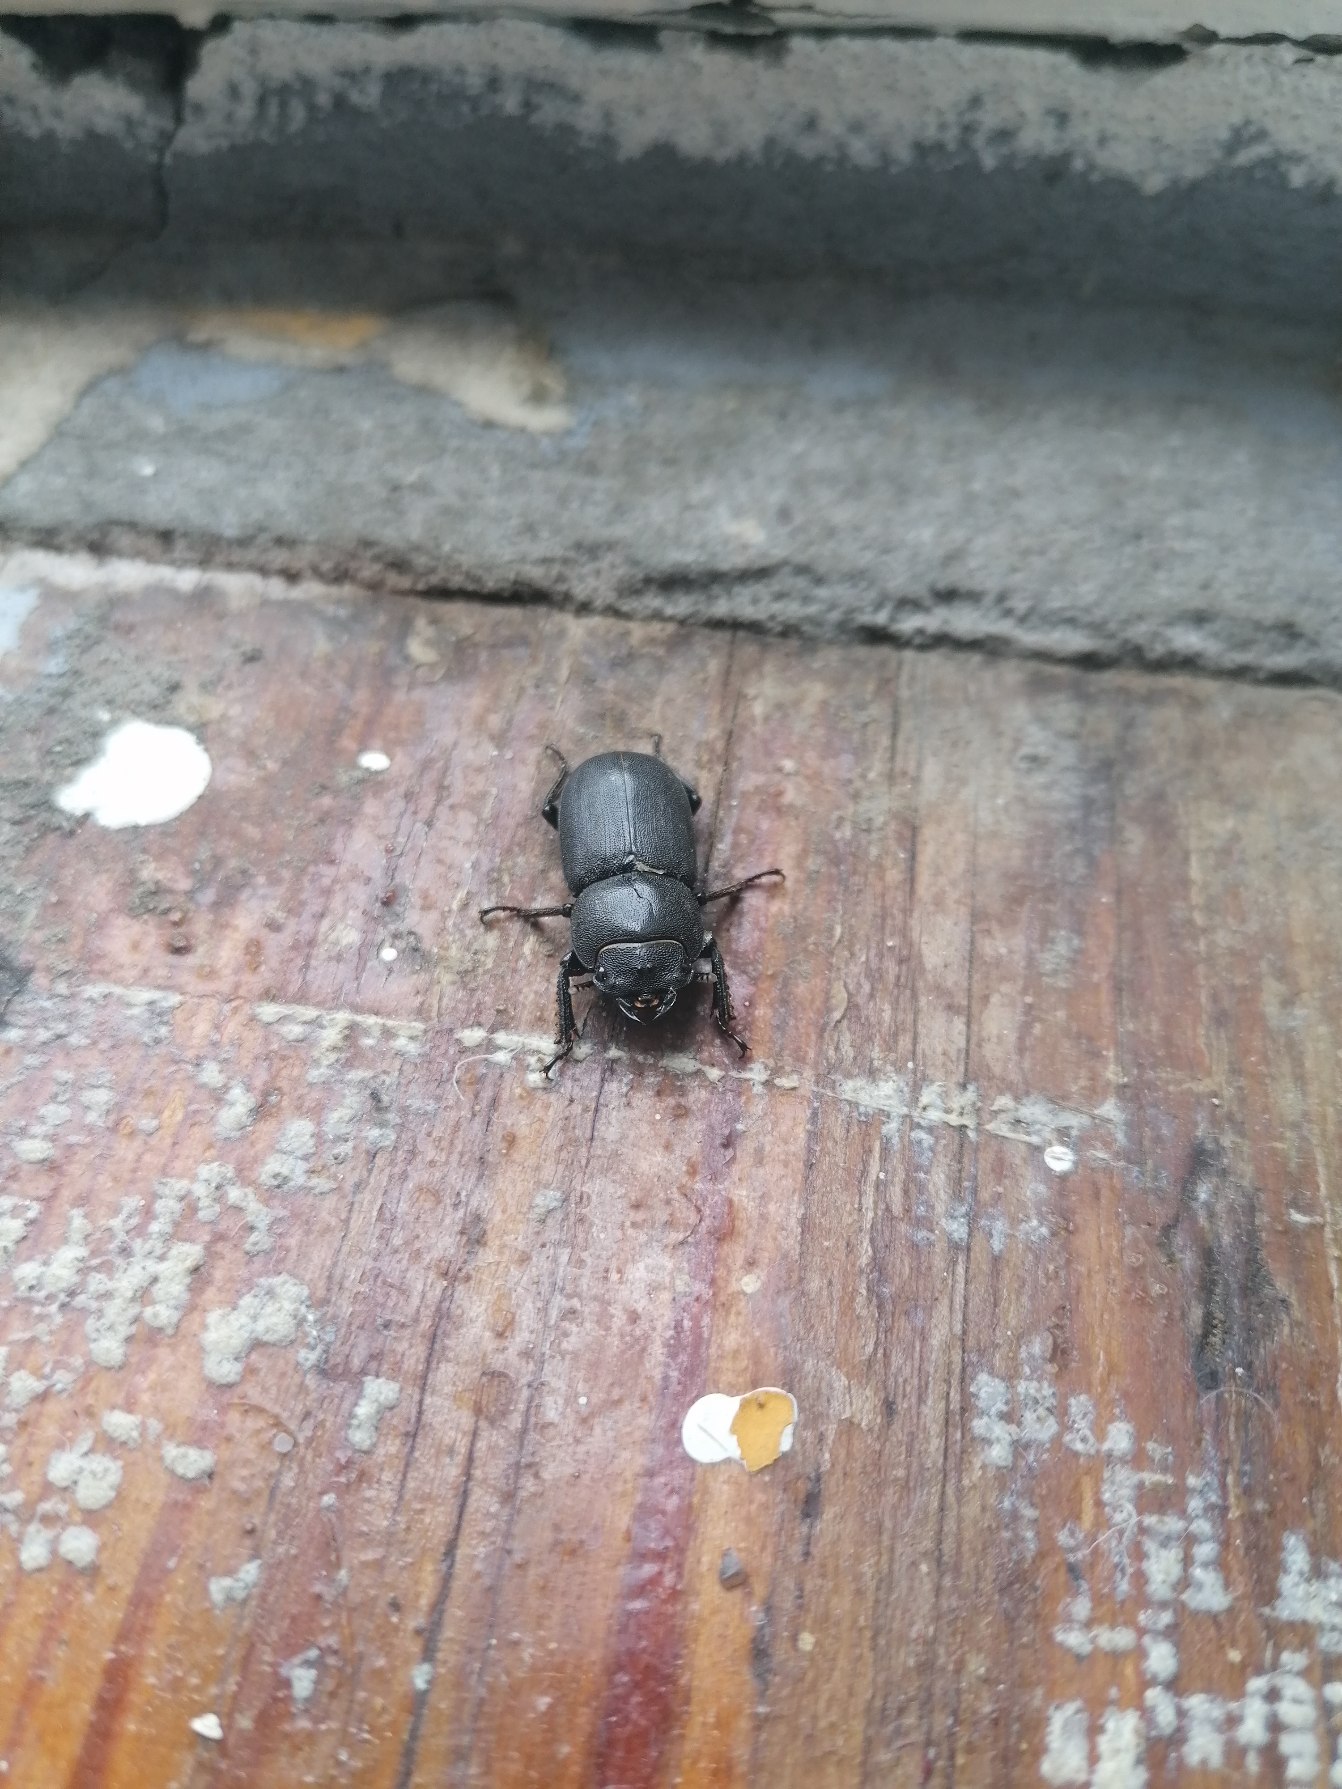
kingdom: Animalia
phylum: Arthropoda
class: Insecta
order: Coleoptera
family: Lucanidae
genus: Dorcus
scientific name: Dorcus parallelipipedus
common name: Bøghjort
